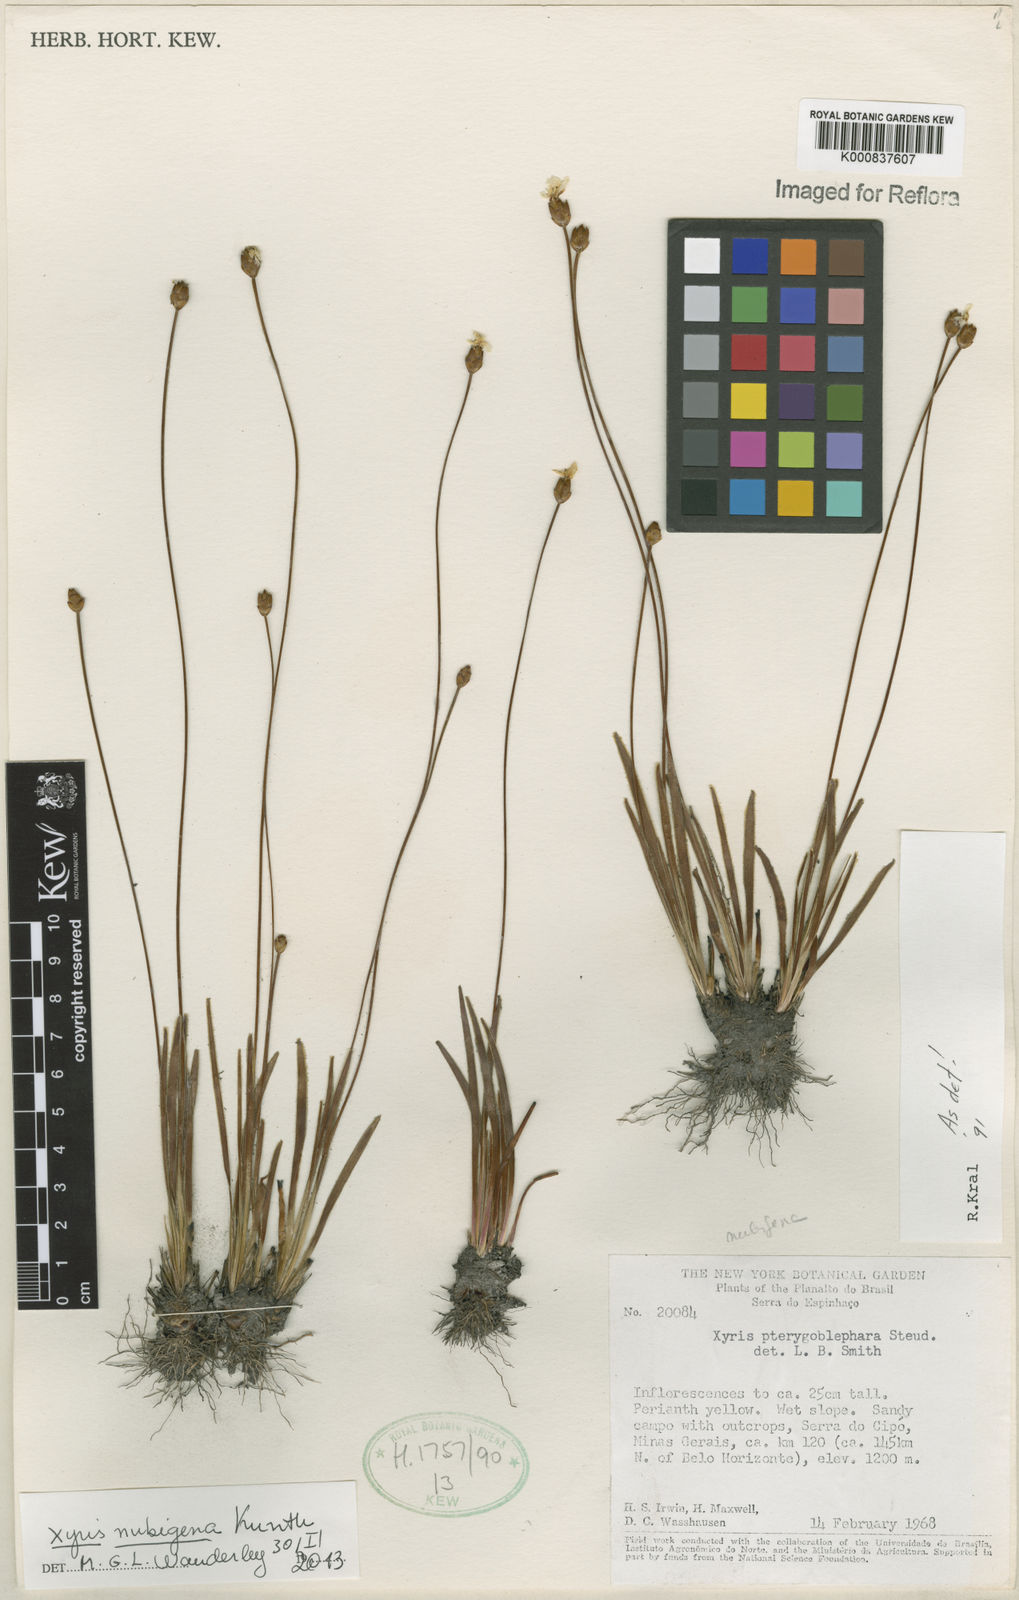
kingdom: Plantae
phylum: Tracheophyta
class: Liliopsida
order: Poales
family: Xyridaceae
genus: Xyris
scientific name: Xyris nubigena
